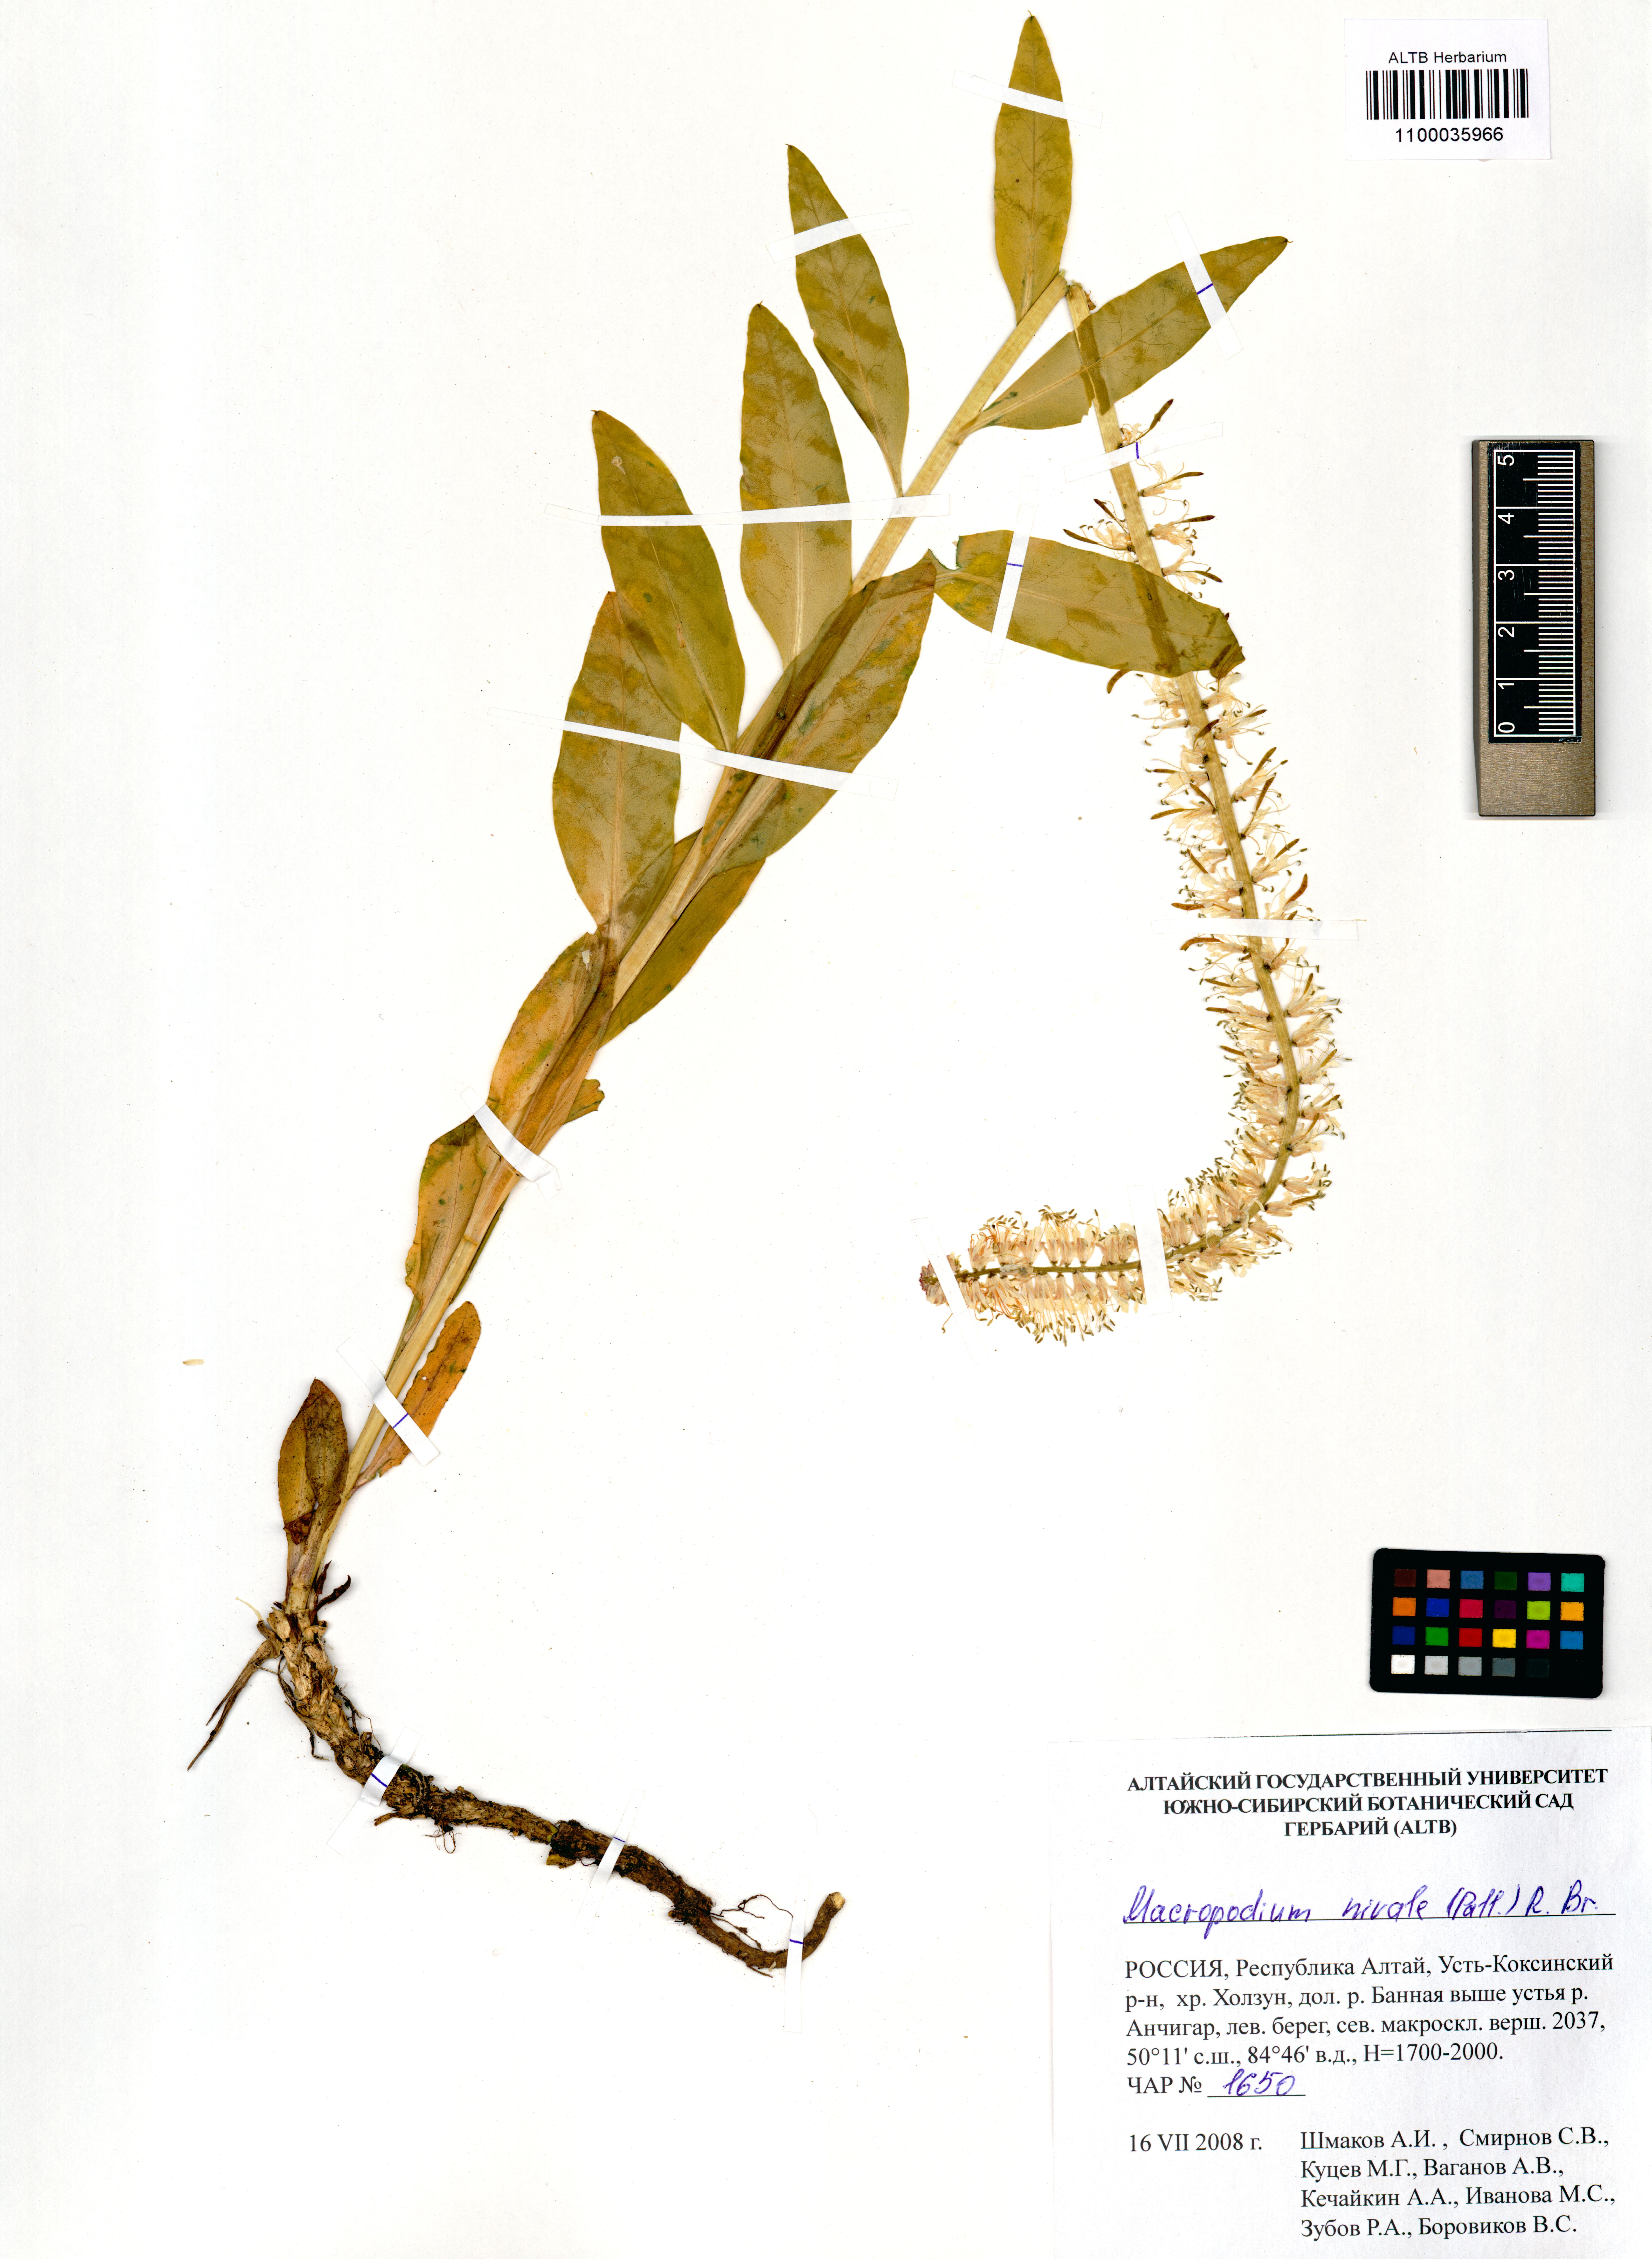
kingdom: Plantae
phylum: Tracheophyta
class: Magnoliopsida
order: Brassicales
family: Brassicaceae
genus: Macropodium
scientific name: Macropodium nivale
